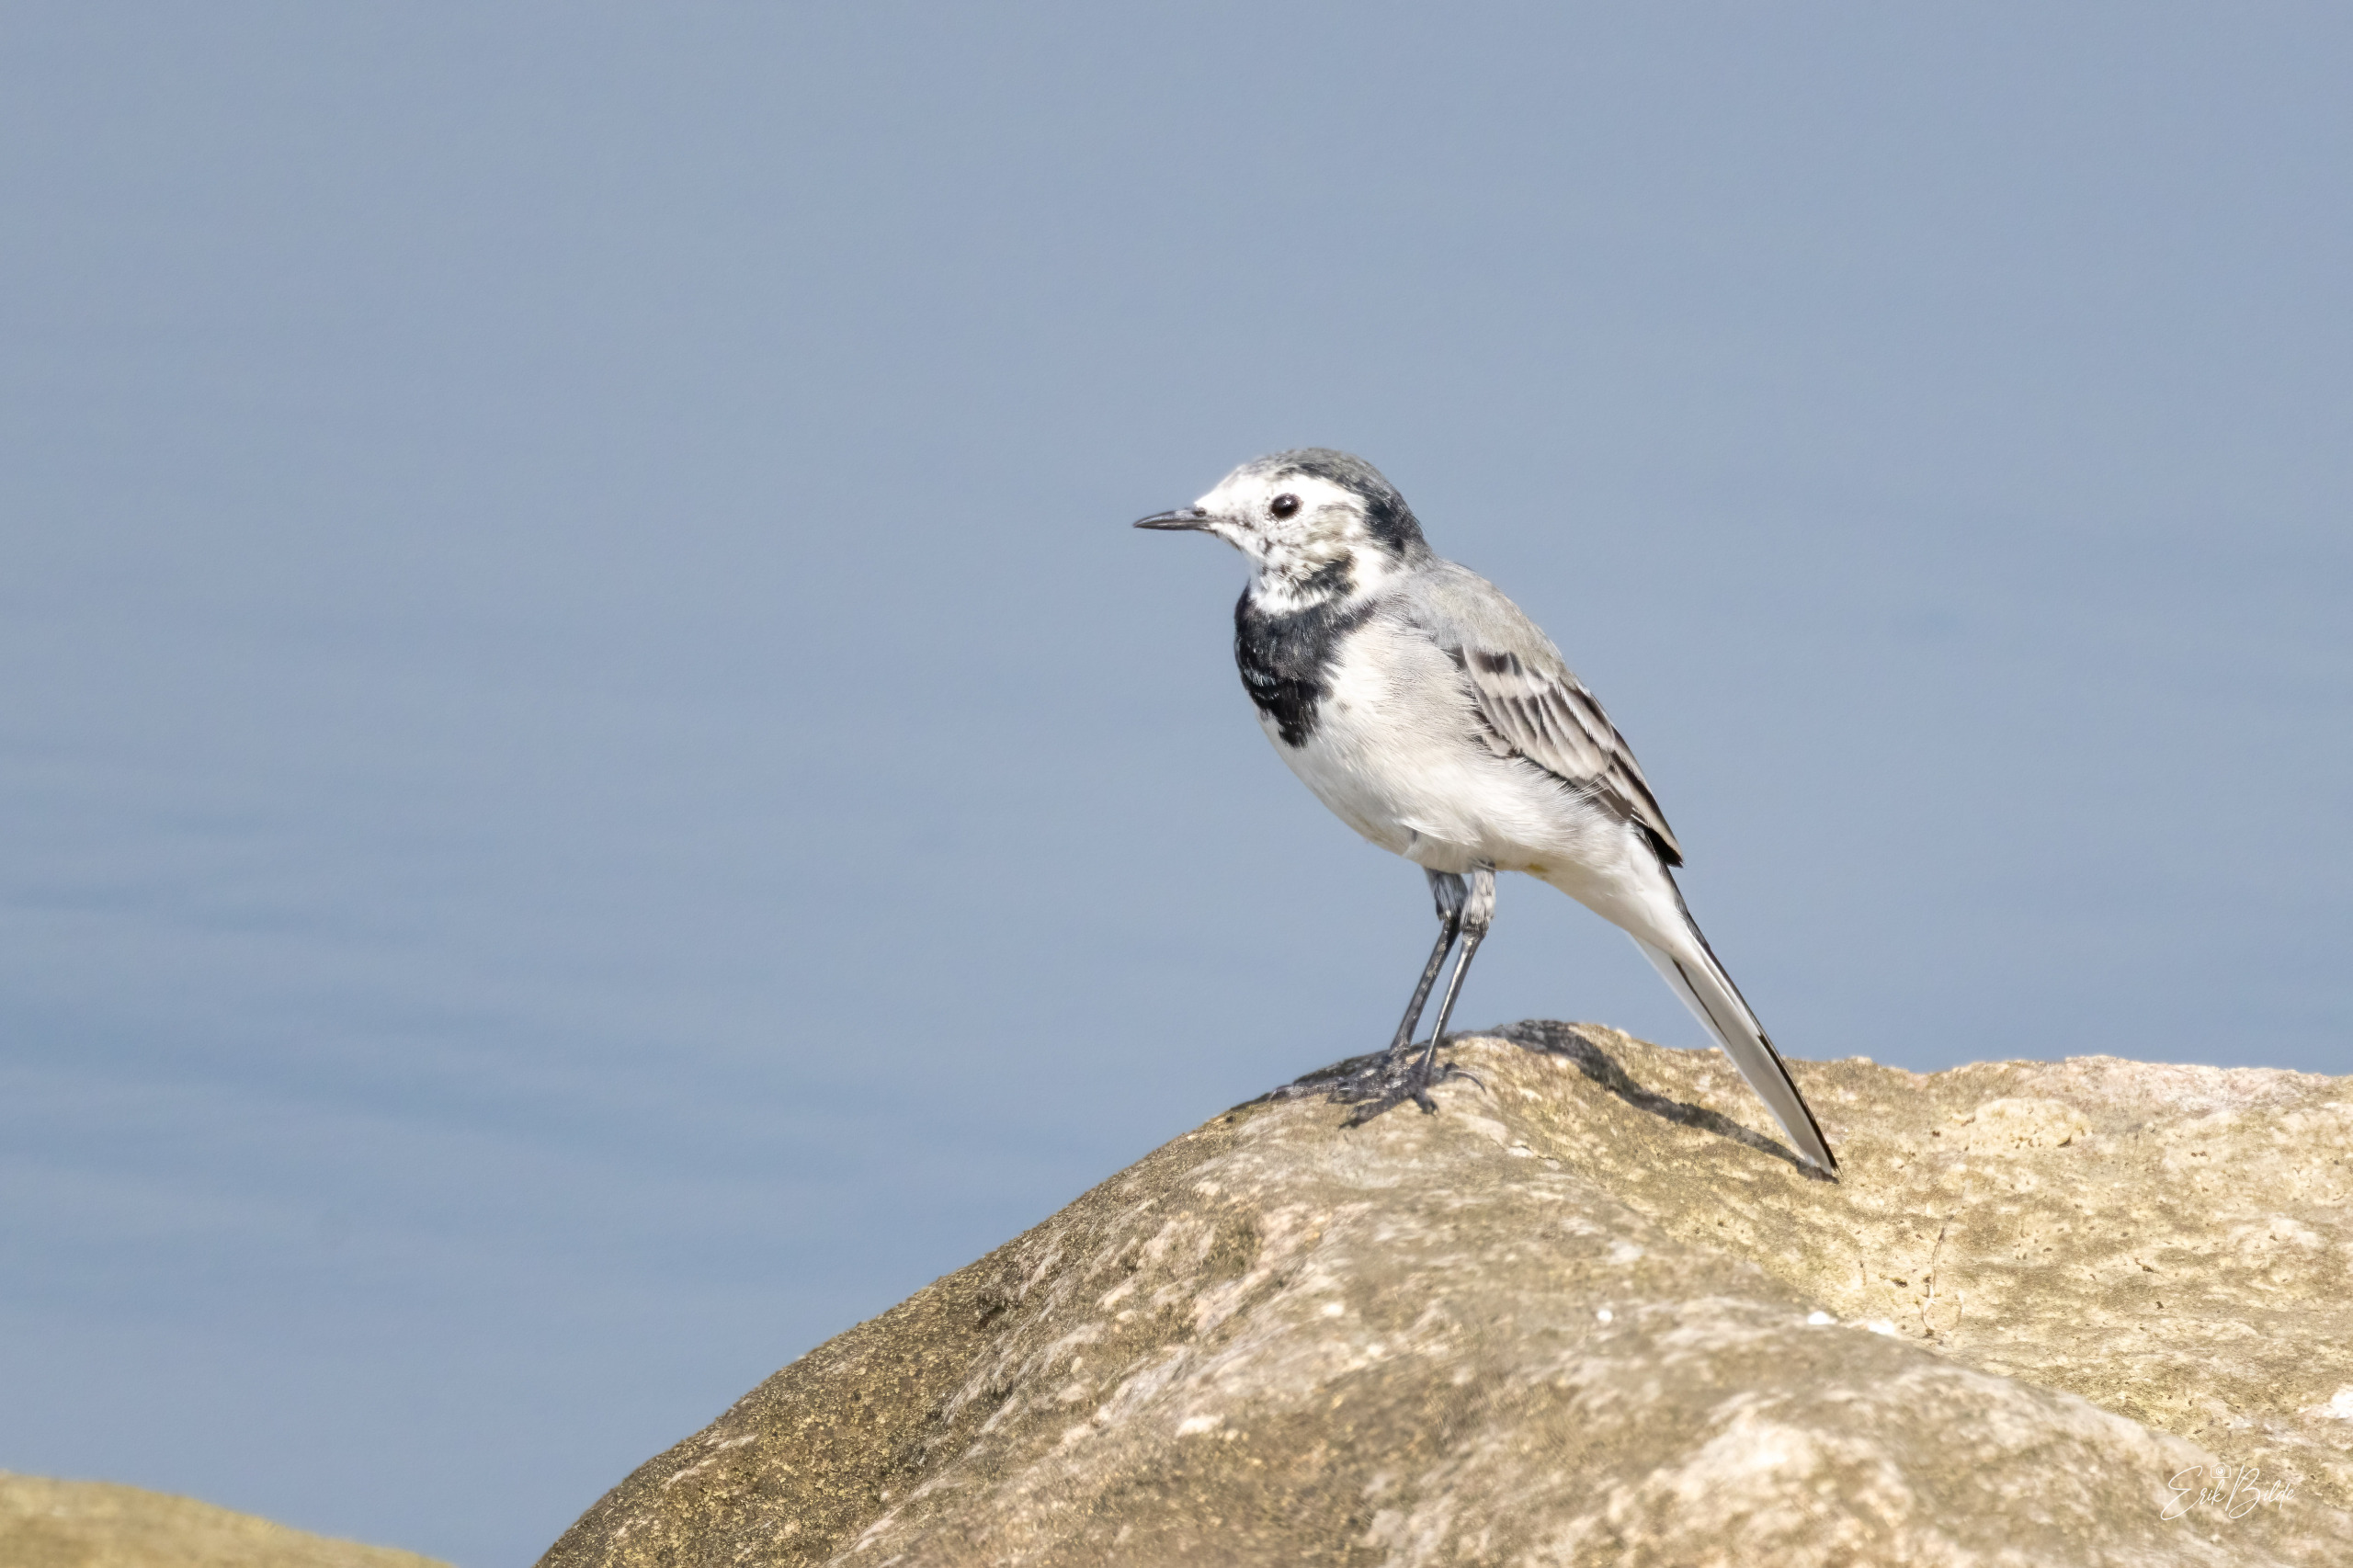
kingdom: Animalia
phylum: Chordata
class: Aves
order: Passeriformes
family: Motacillidae
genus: Motacilla
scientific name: Motacilla alba
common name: Hvid vipstjert
